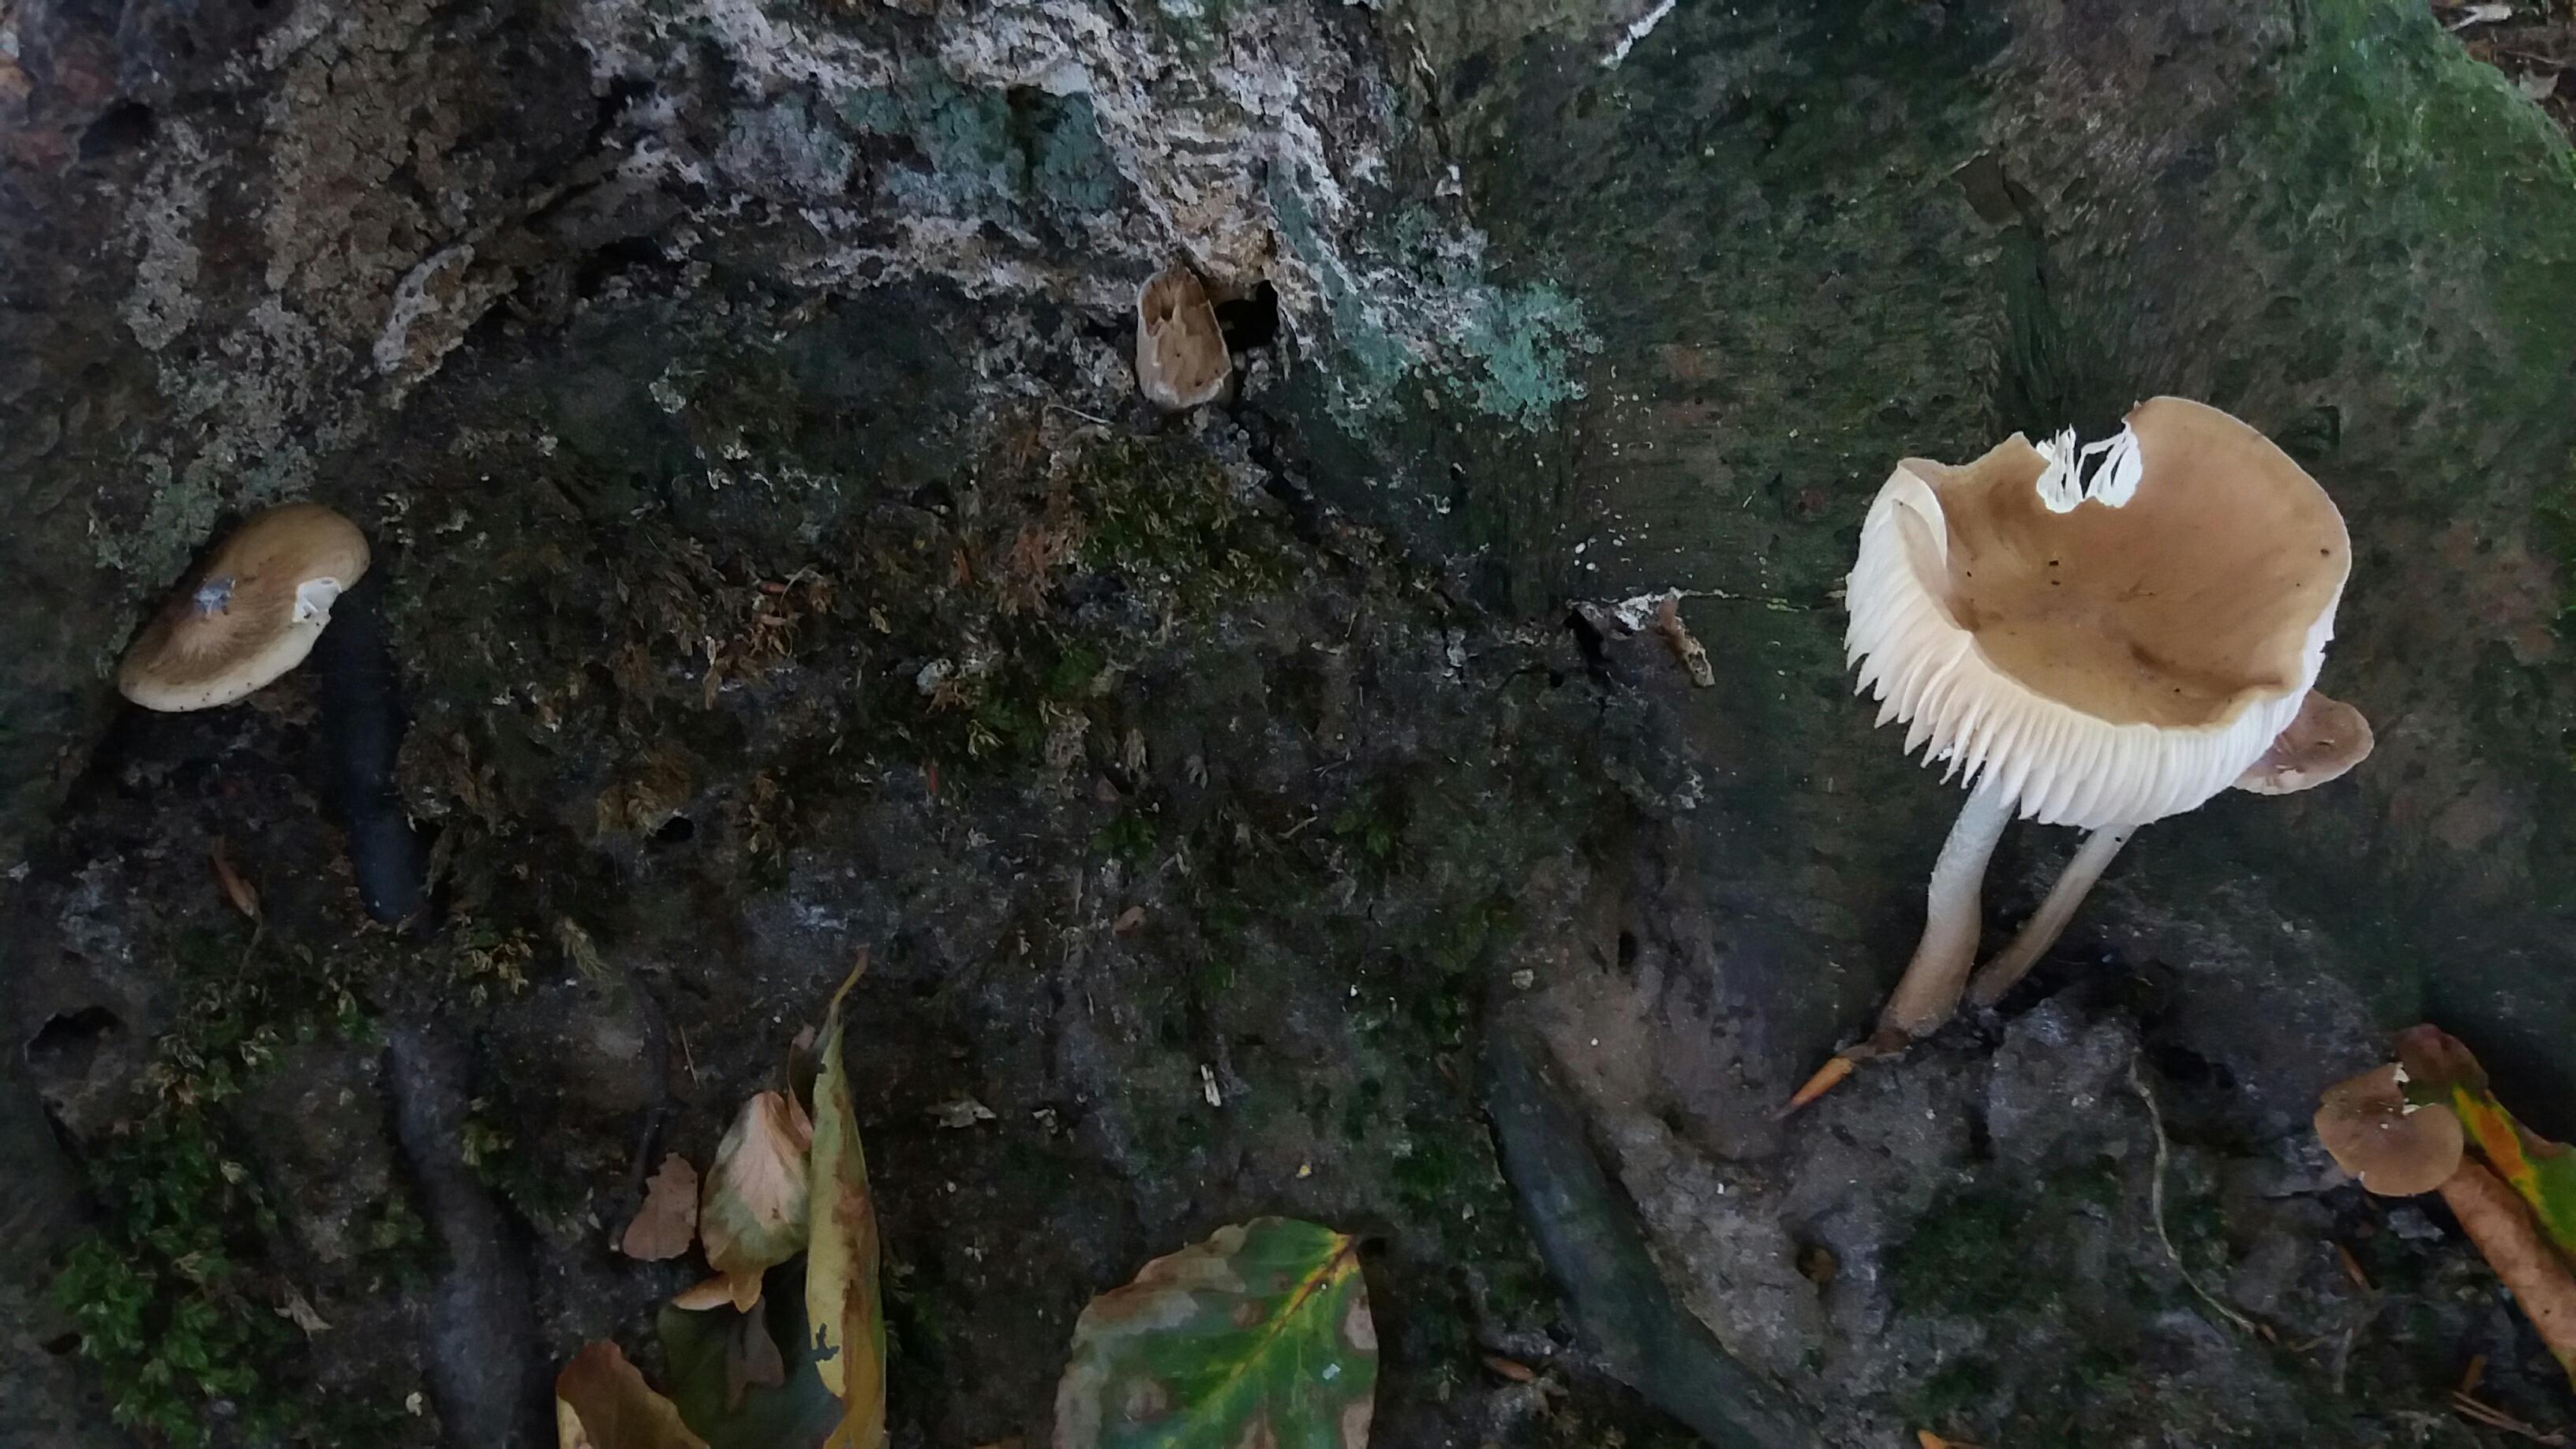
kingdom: Fungi
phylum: Basidiomycota
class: Agaricomycetes
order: Agaricales
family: Physalacriaceae
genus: Hymenopellis
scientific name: Hymenopellis radicata
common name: almindelig pælerodshat
